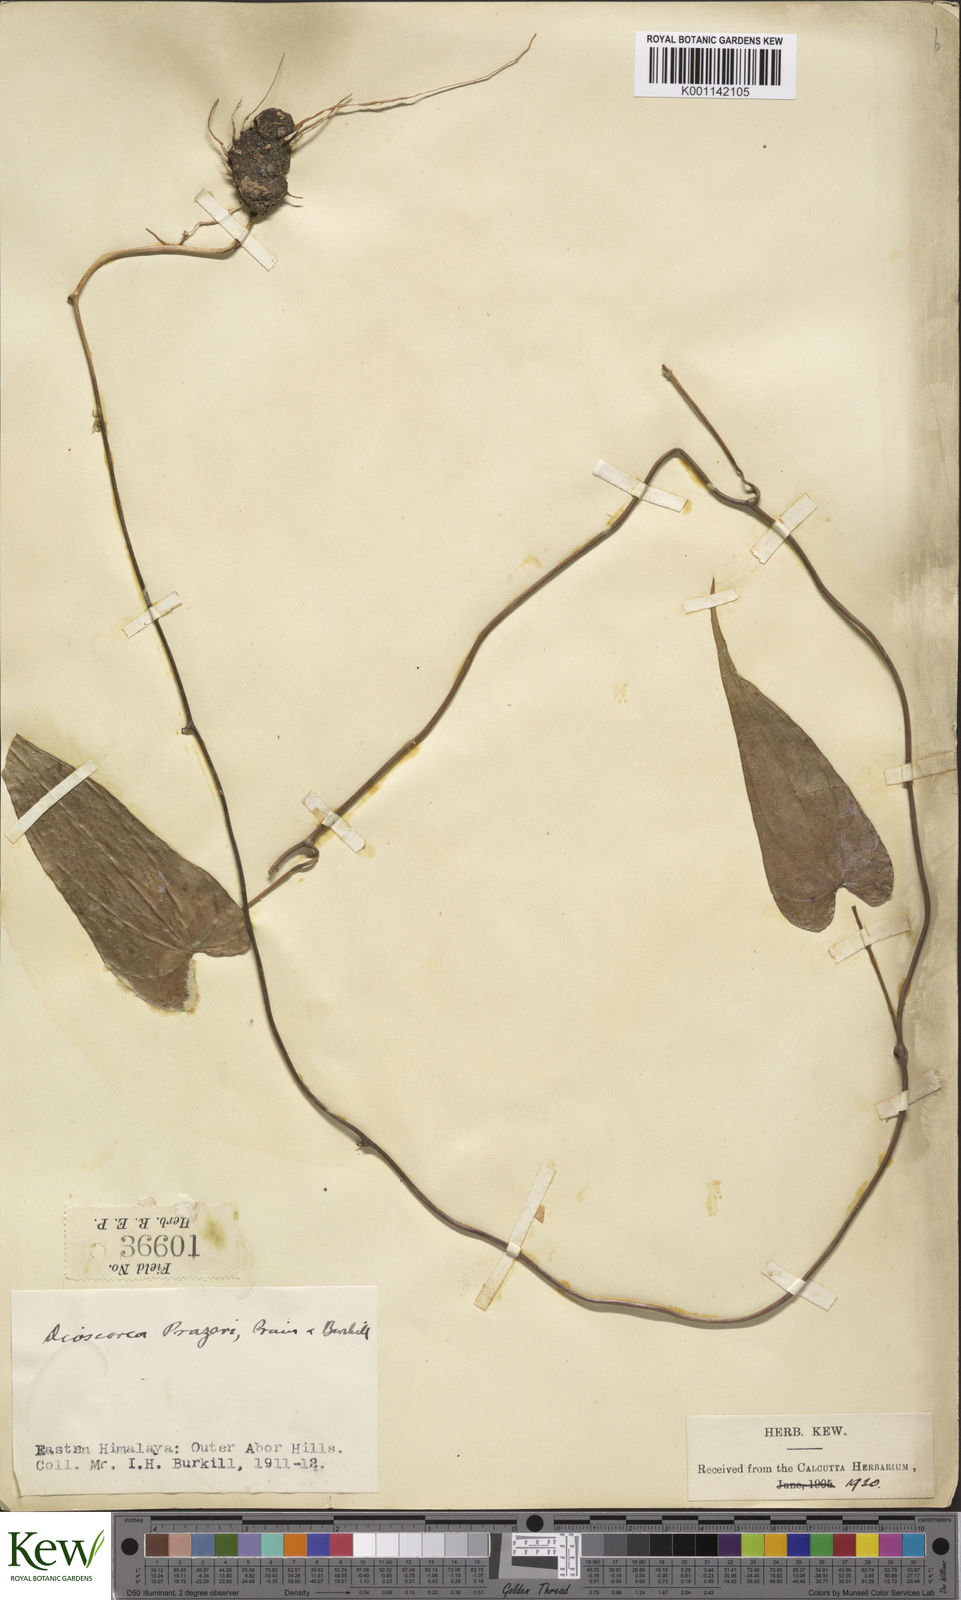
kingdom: Plantae
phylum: Tracheophyta
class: Liliopsida
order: Dioscoreales
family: Dioscoreaceae
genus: Dioscorea
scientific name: Dioscorea prazeri
